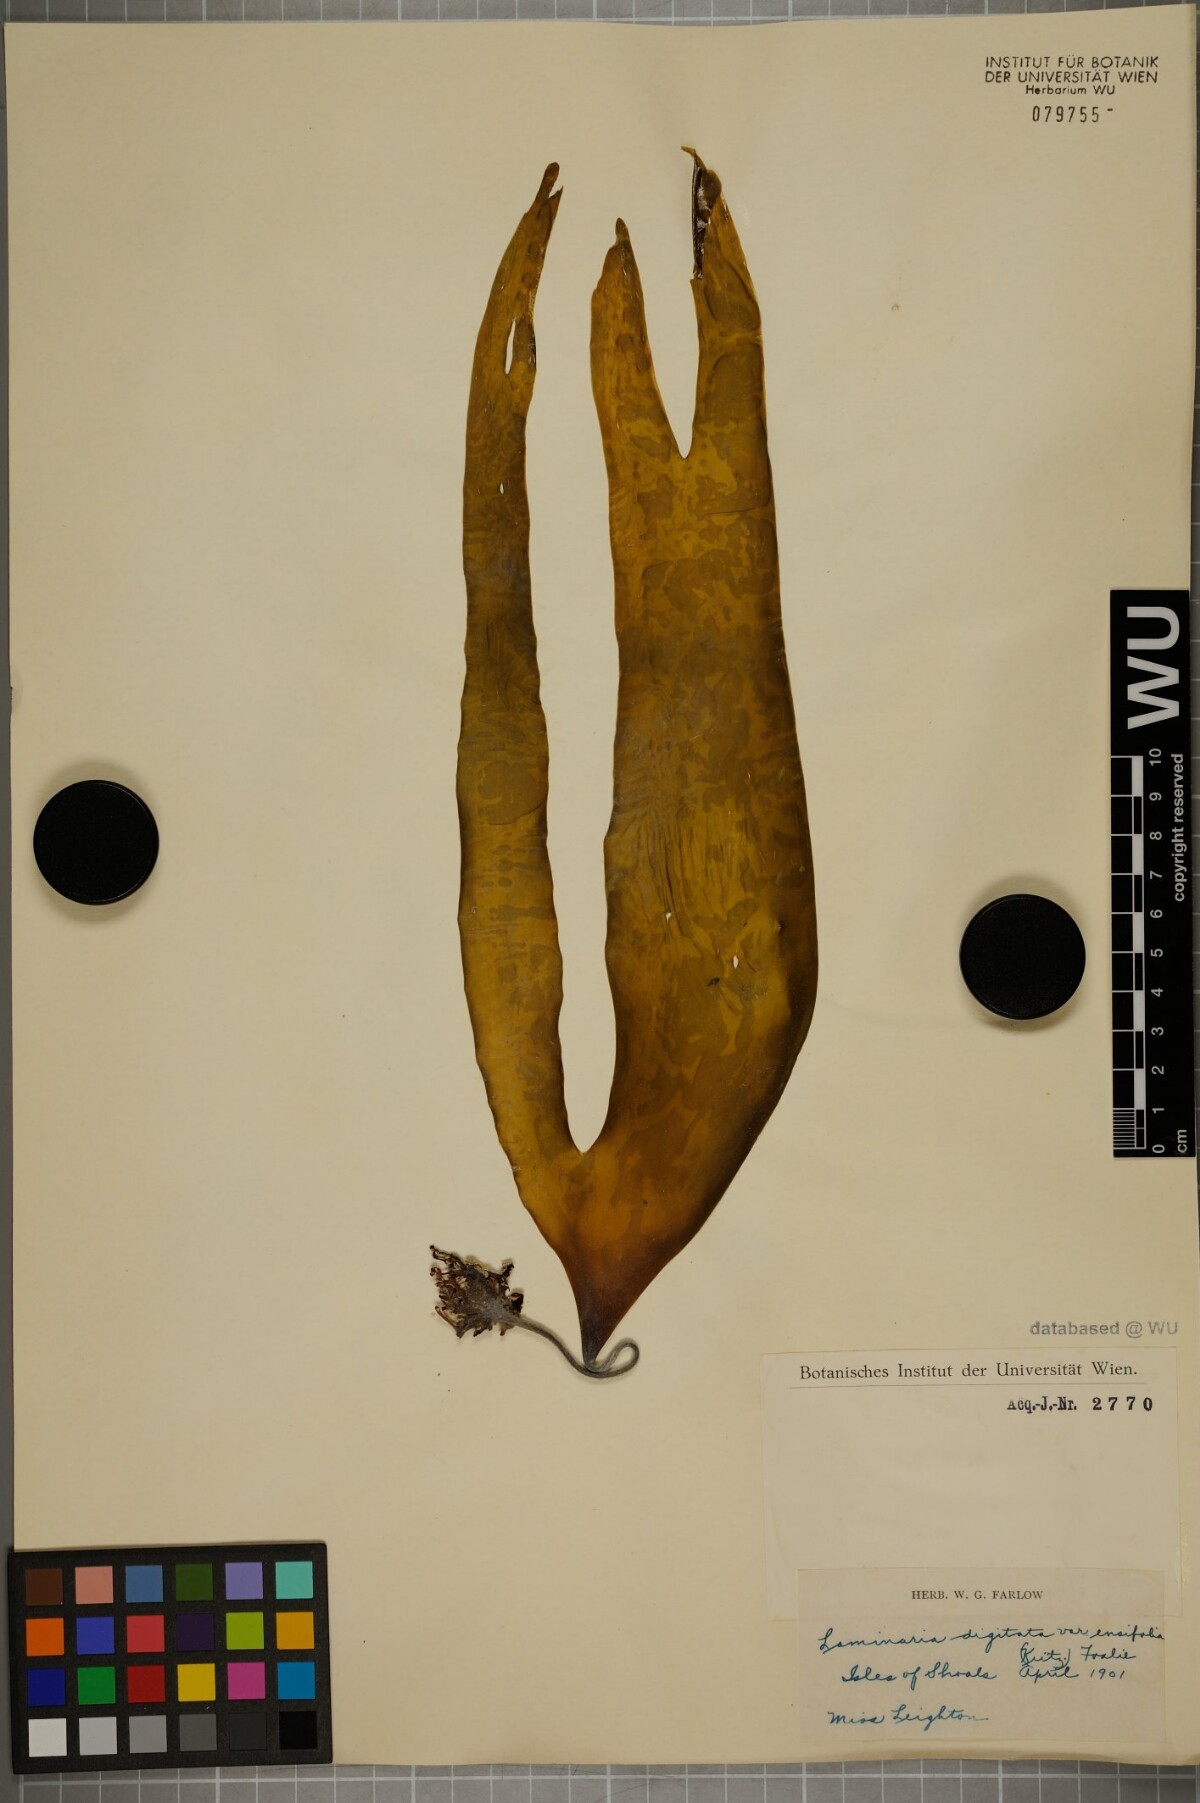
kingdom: Chromista
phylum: Ochrophyta
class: Phaeophyceae
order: Laminariales
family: Laminariaceae
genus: Laminaria
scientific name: Laminaria digitata
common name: Oarweed
